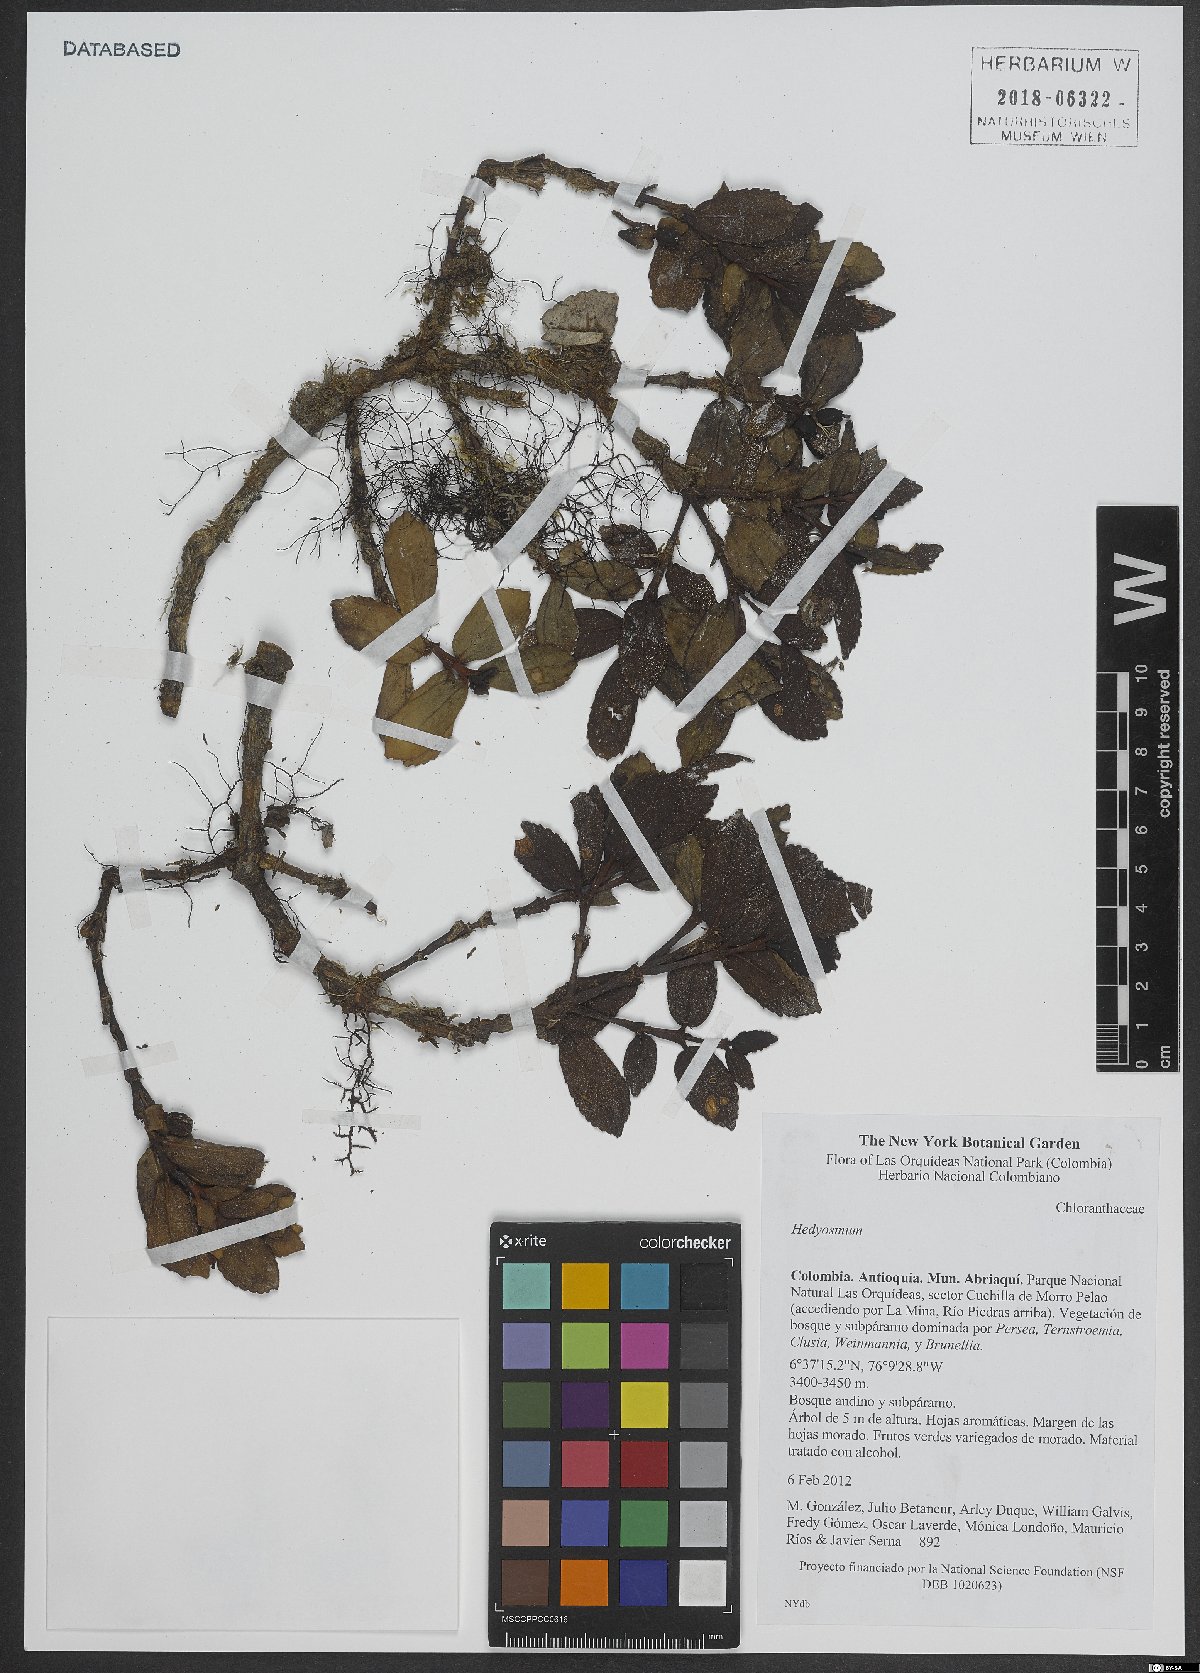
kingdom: Plantae
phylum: Tracheophyta
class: Magnoliopsida
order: Chloranthales
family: Chloranthaceae
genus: Hedyosmum
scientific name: Hedyosmum
